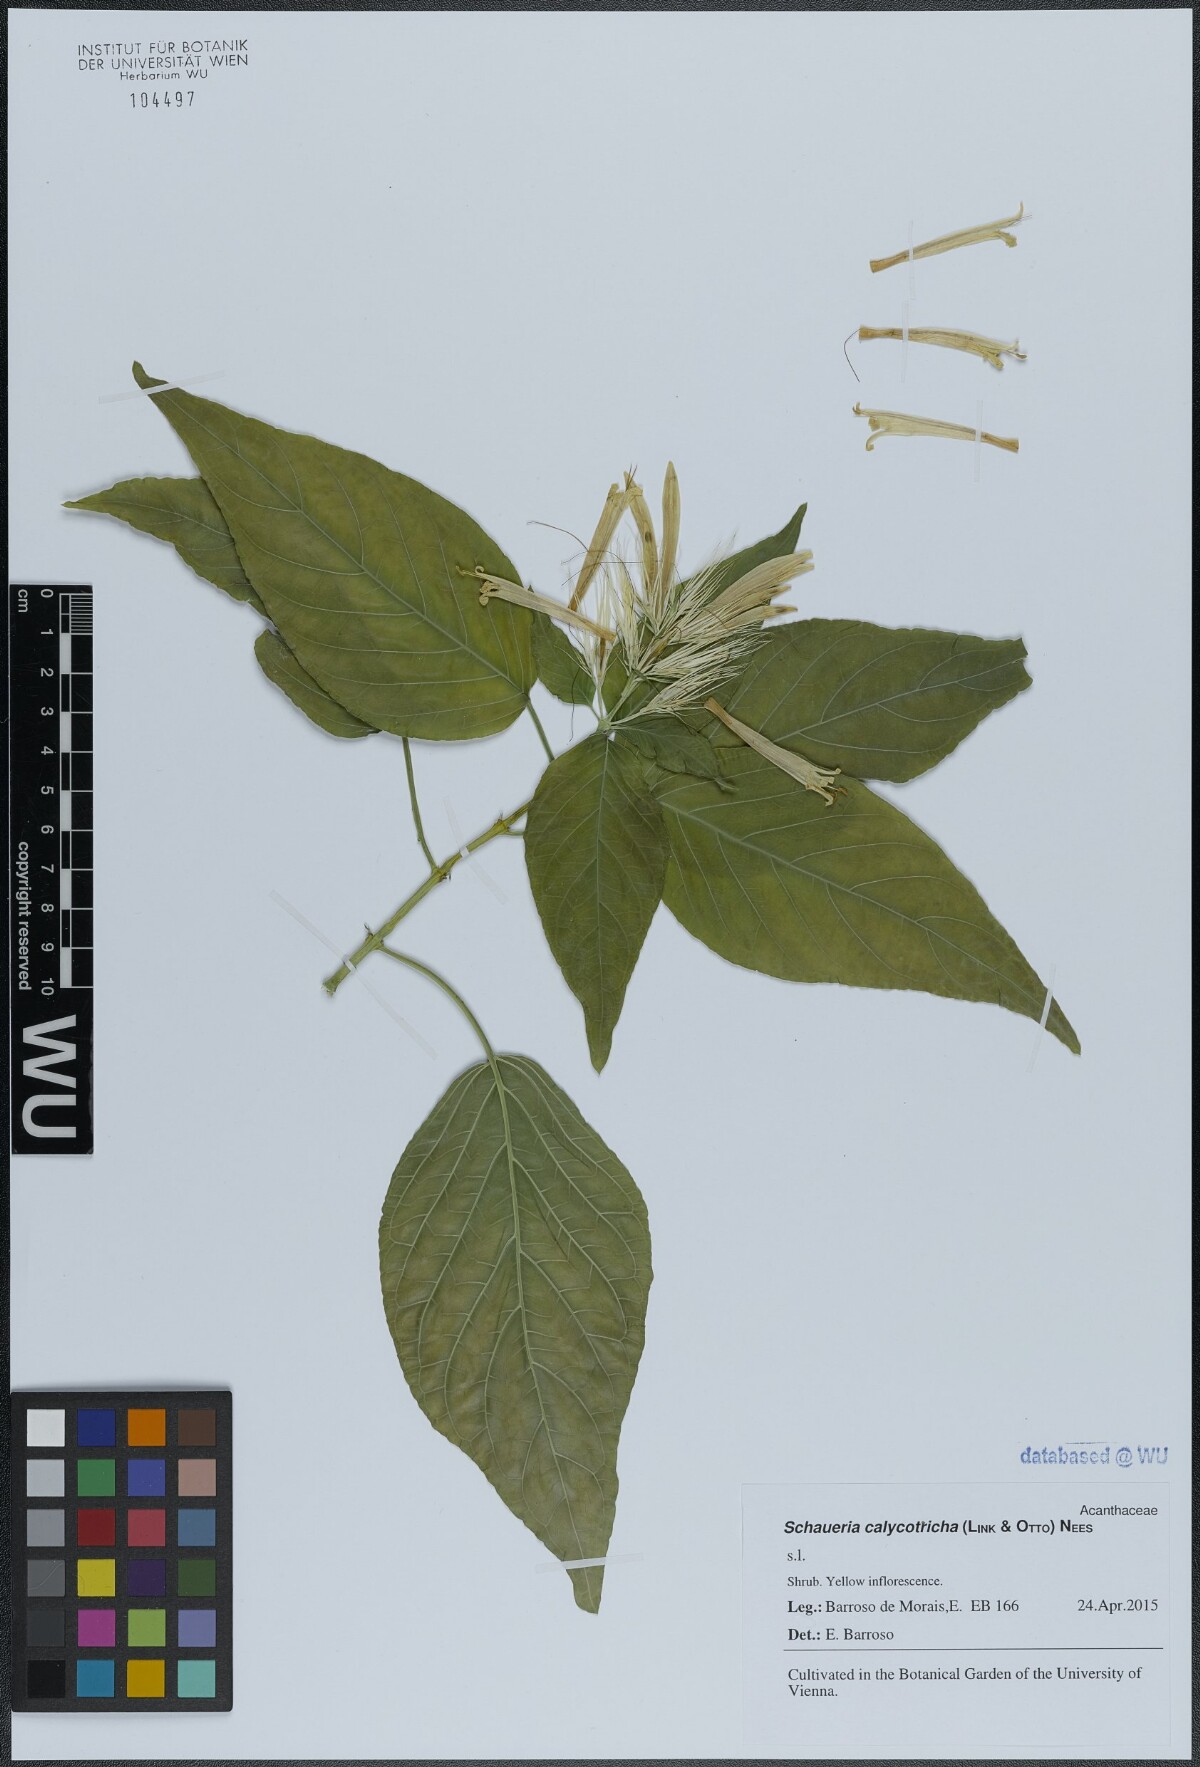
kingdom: Plantae
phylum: Tracheophyta
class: Magnoliopsida
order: Lamiales
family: Acanthaceae
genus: Schaueria
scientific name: Schaueria calytricha
